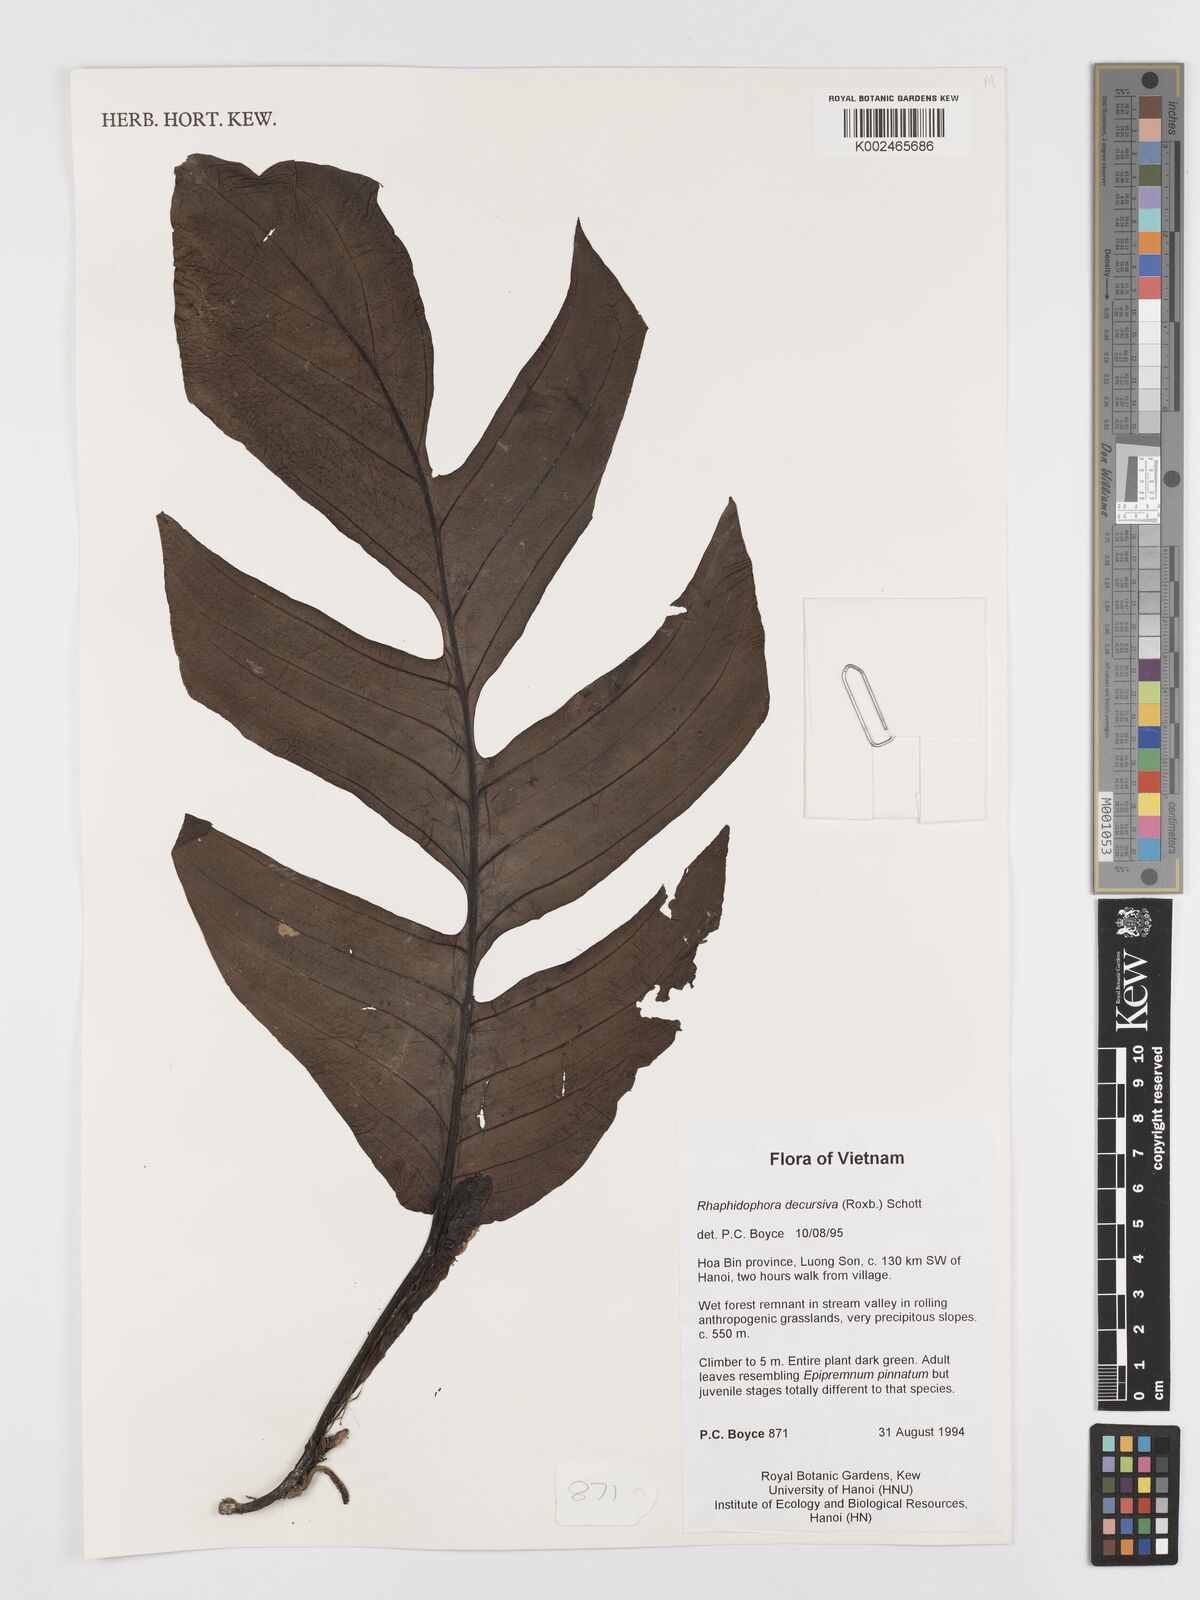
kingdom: Plantae
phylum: Tracheophyta
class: Liliopsida
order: Alismatales
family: Araceae
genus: Rhaphidophora
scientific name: Rhaphidophora crassicaulis
